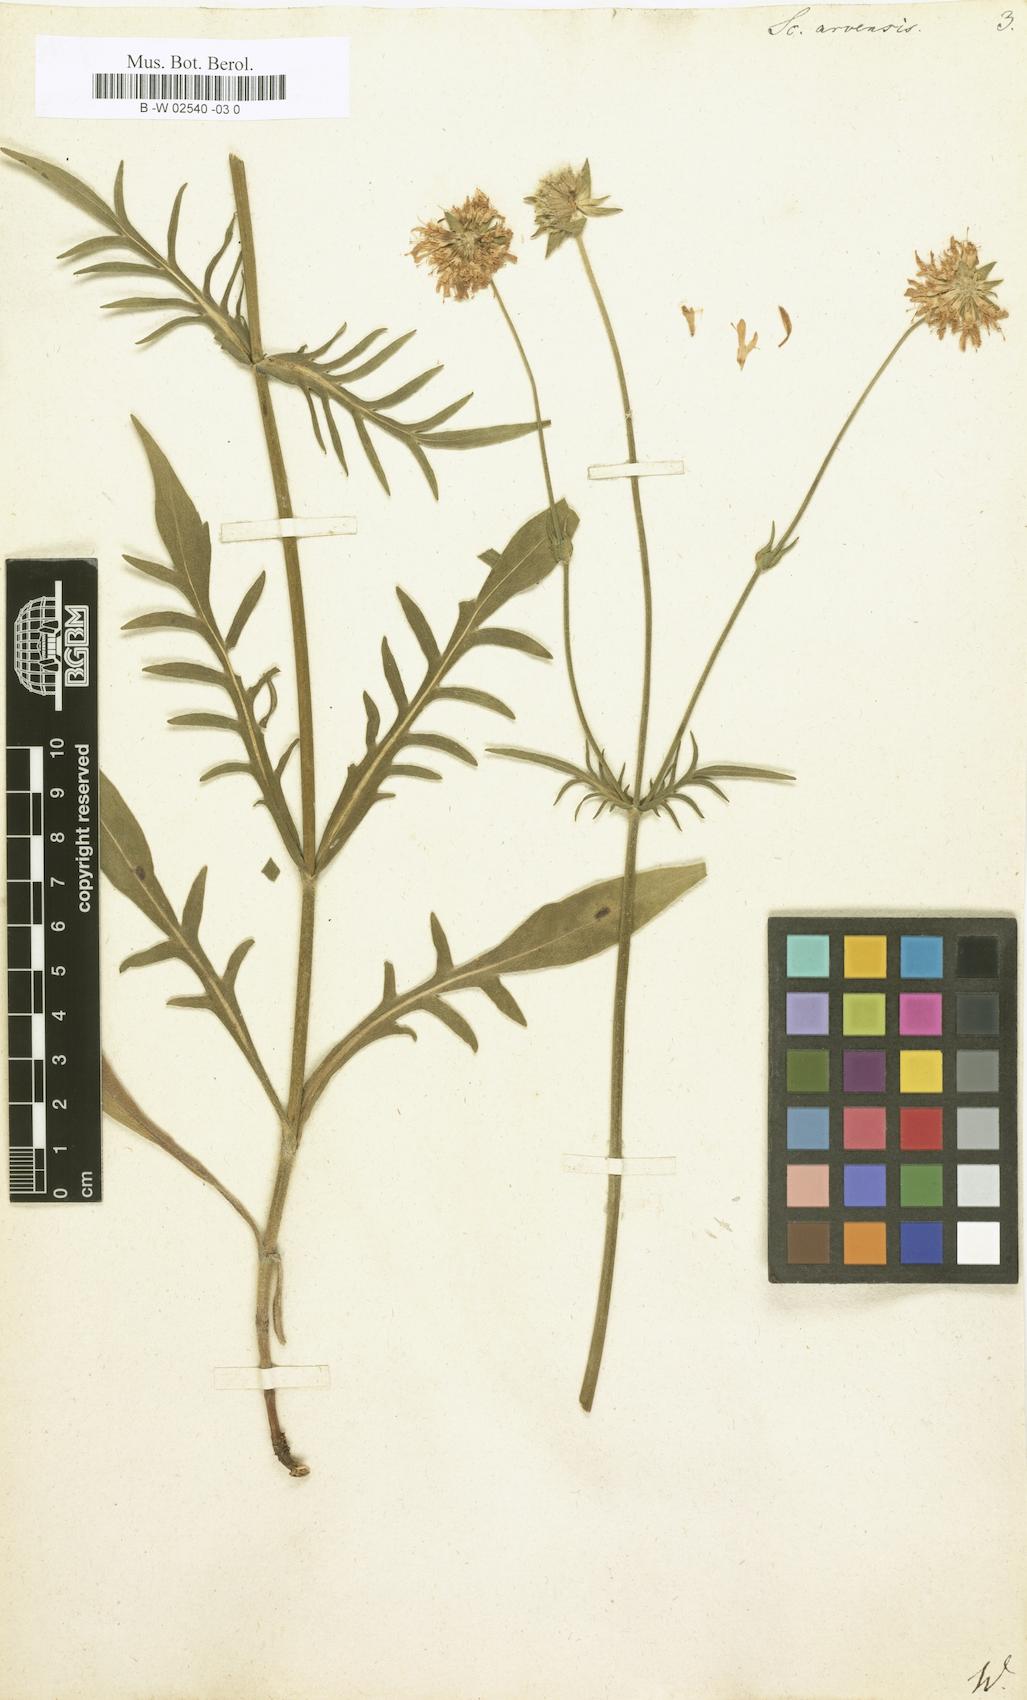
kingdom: Plantae
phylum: Tracheophyta
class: Magnoliopsida
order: Dipsacales
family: Caprifoliaceae
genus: Knautia
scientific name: Knautia arvensis
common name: Field scabiosa
